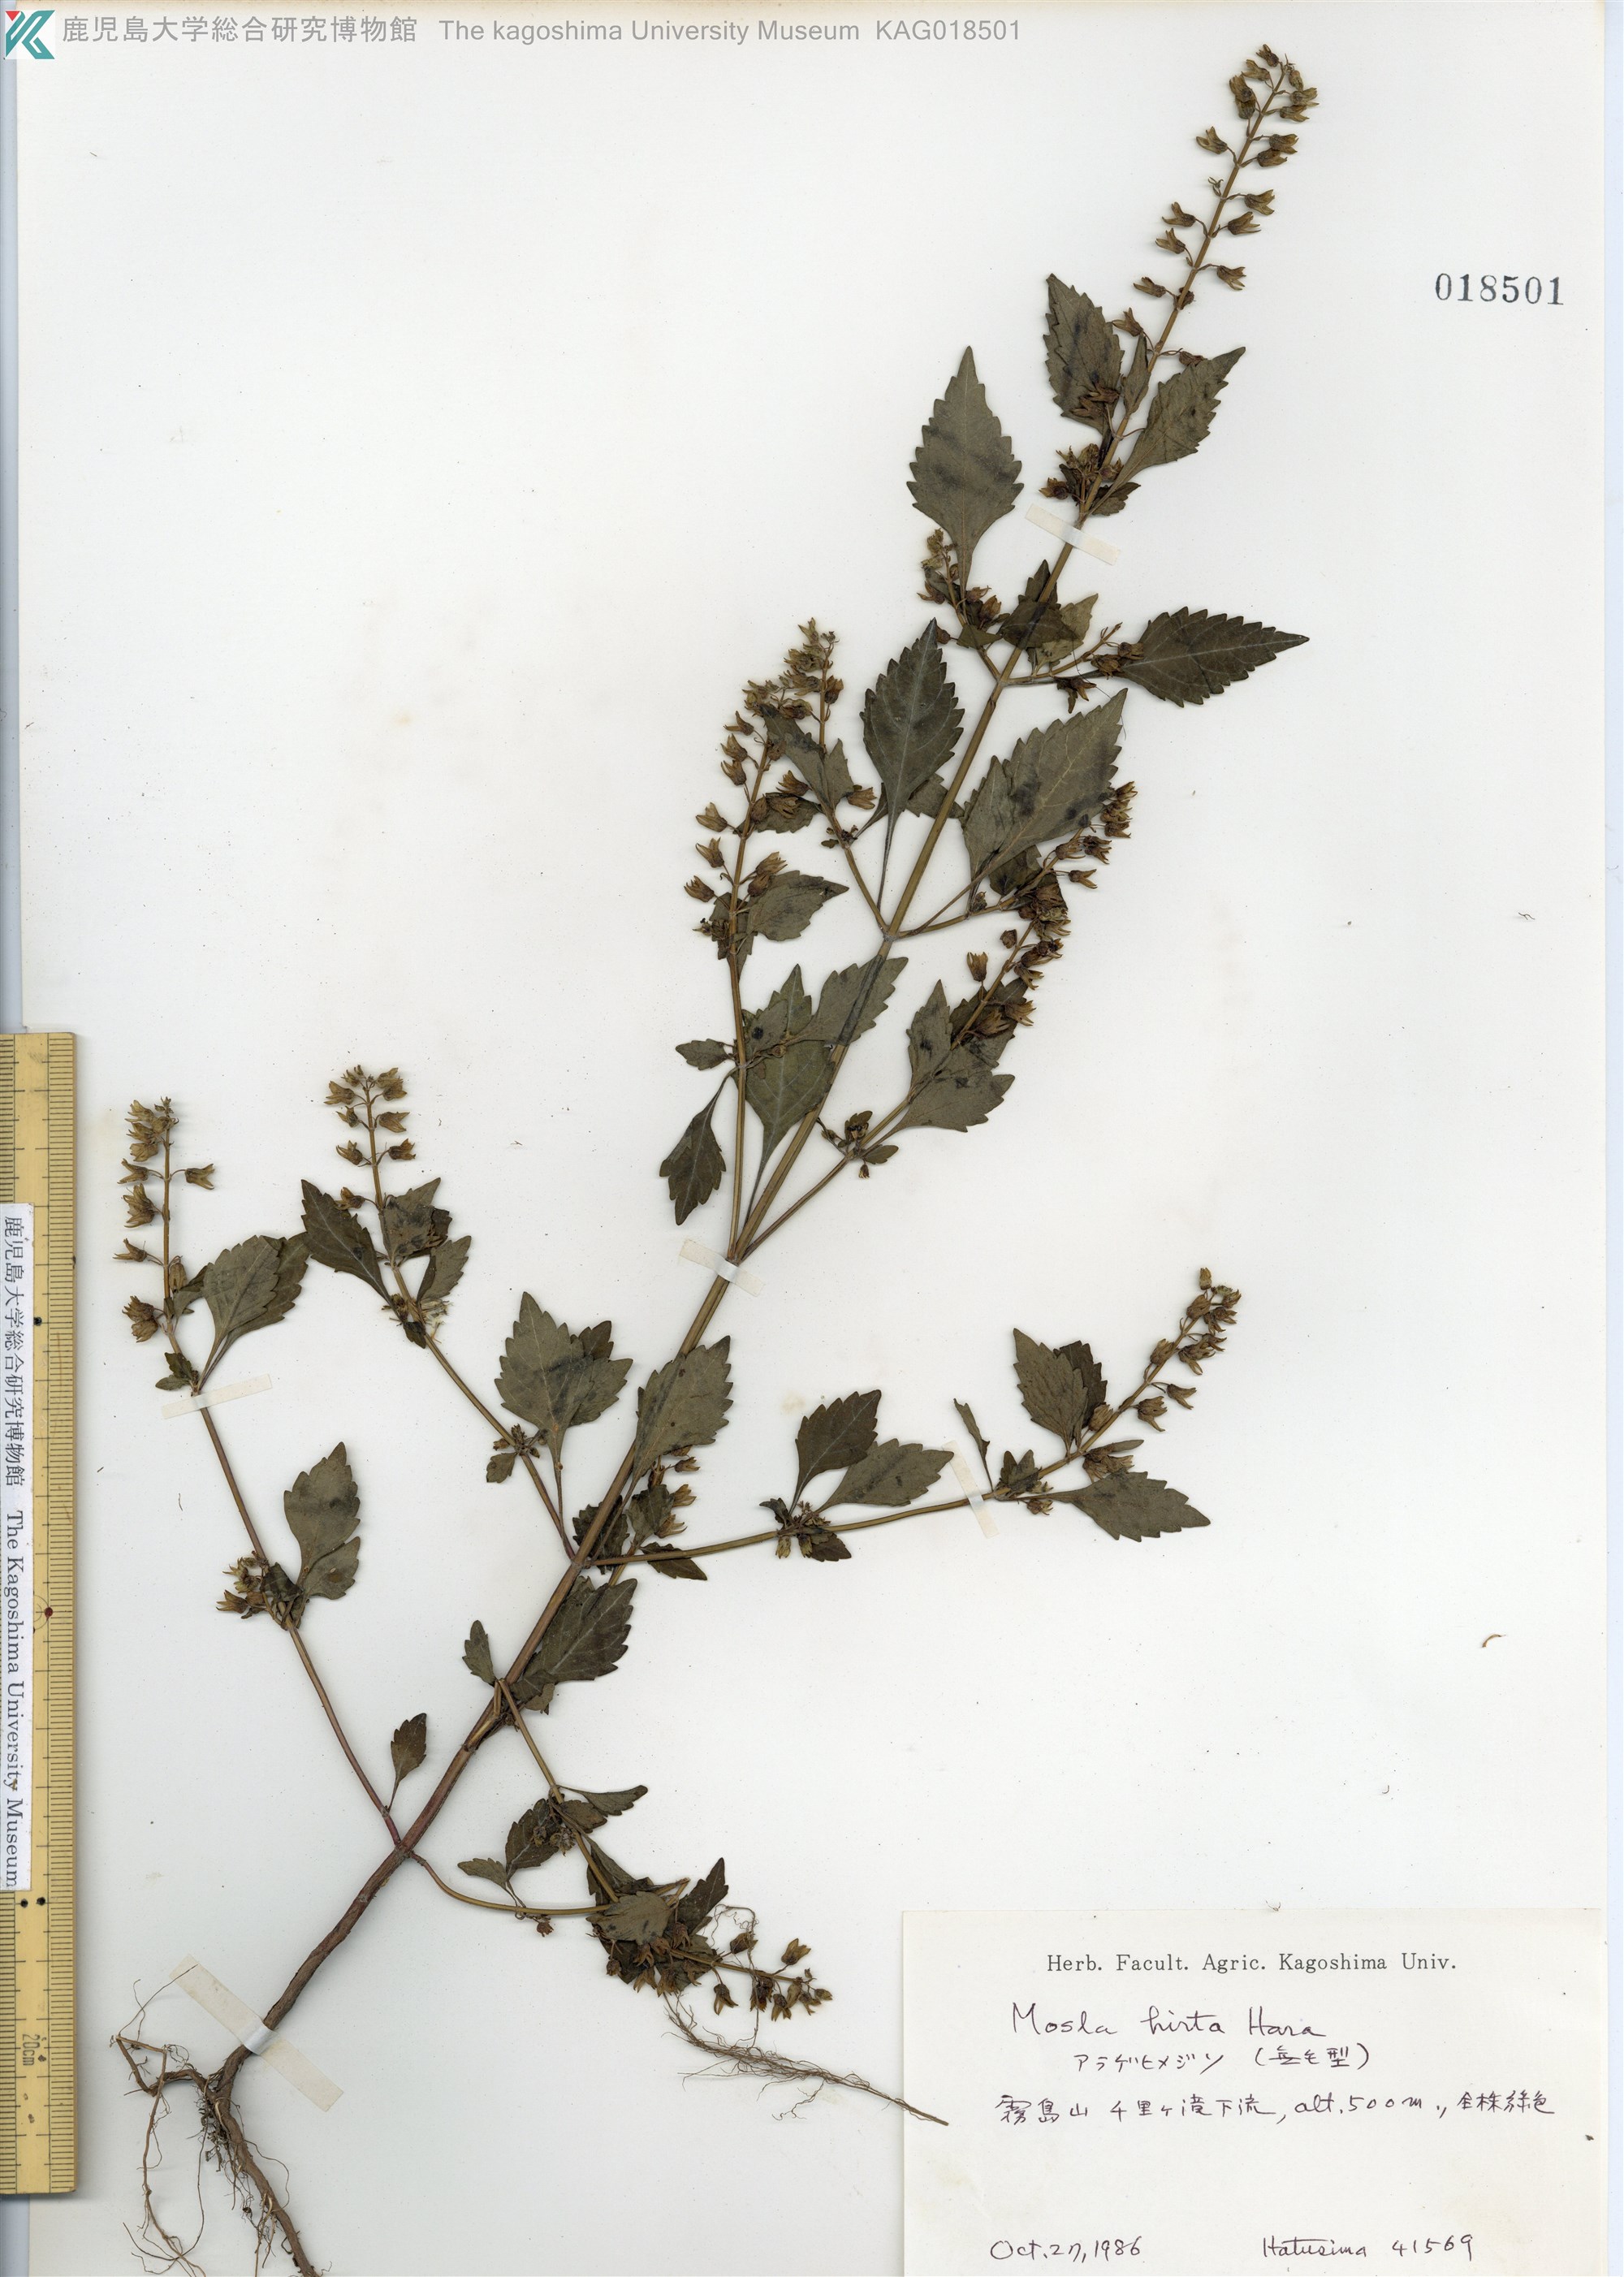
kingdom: Plantae
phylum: Tracheophyta
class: Magnoliopsida
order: Lamiales
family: Lamiaceae
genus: Mosla
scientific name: Mosla dianthera
